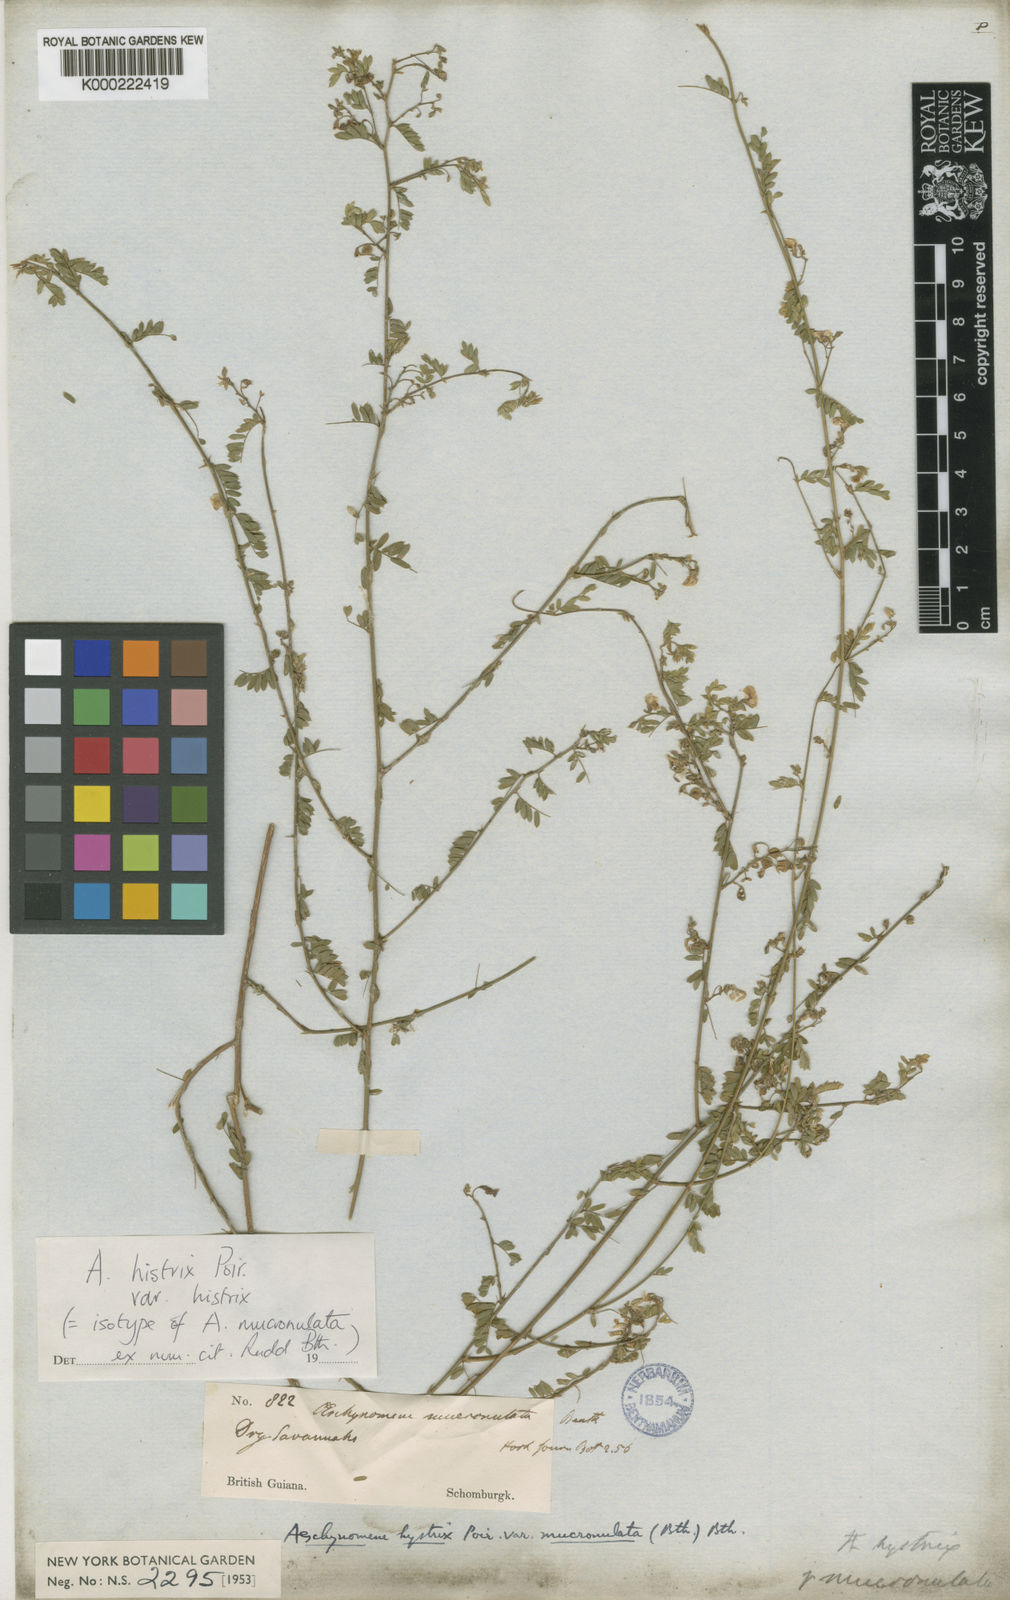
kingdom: Plantae
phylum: Tracheophyta
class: Magnoliopsida
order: Fabales
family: Fabaceae
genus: Ctenodon
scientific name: Ctenodon histrix
